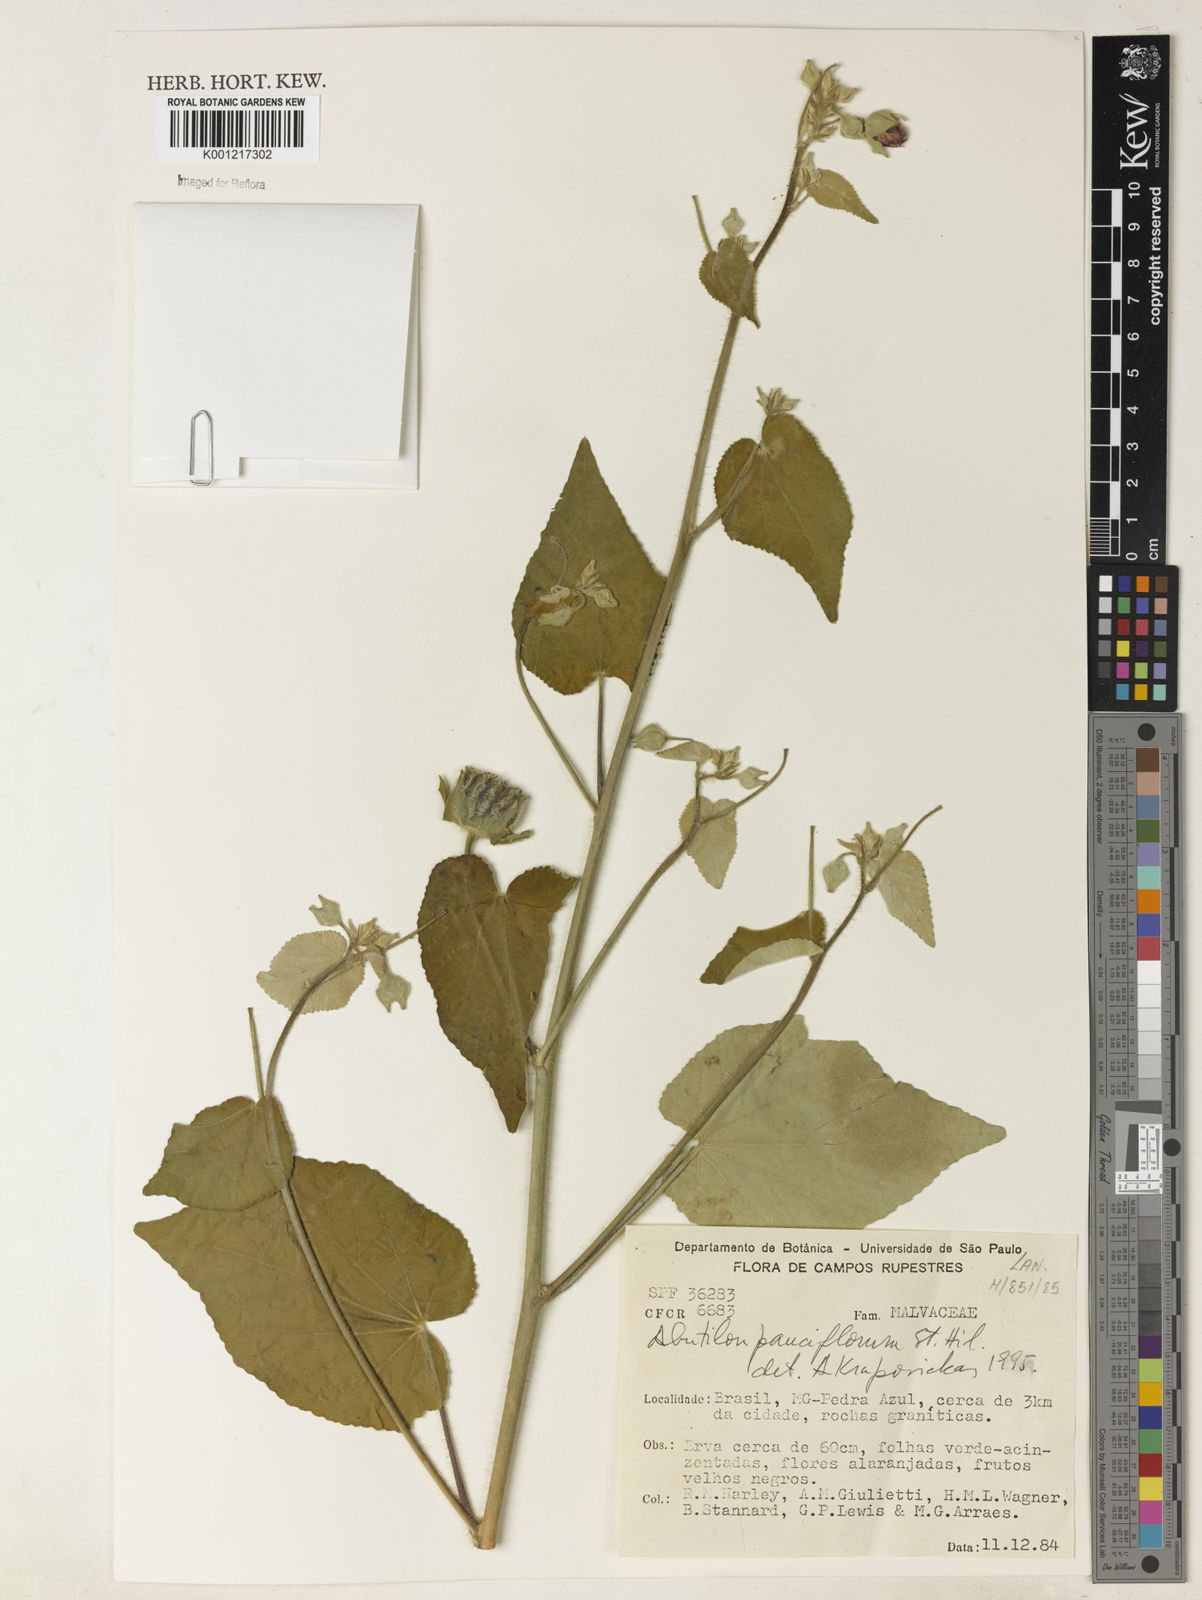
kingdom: Plantae
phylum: Tracheophyta
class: Magnoliopsida
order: Malvales
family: Malvaceae
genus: Callianthe
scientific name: Callianthe pauciflora
